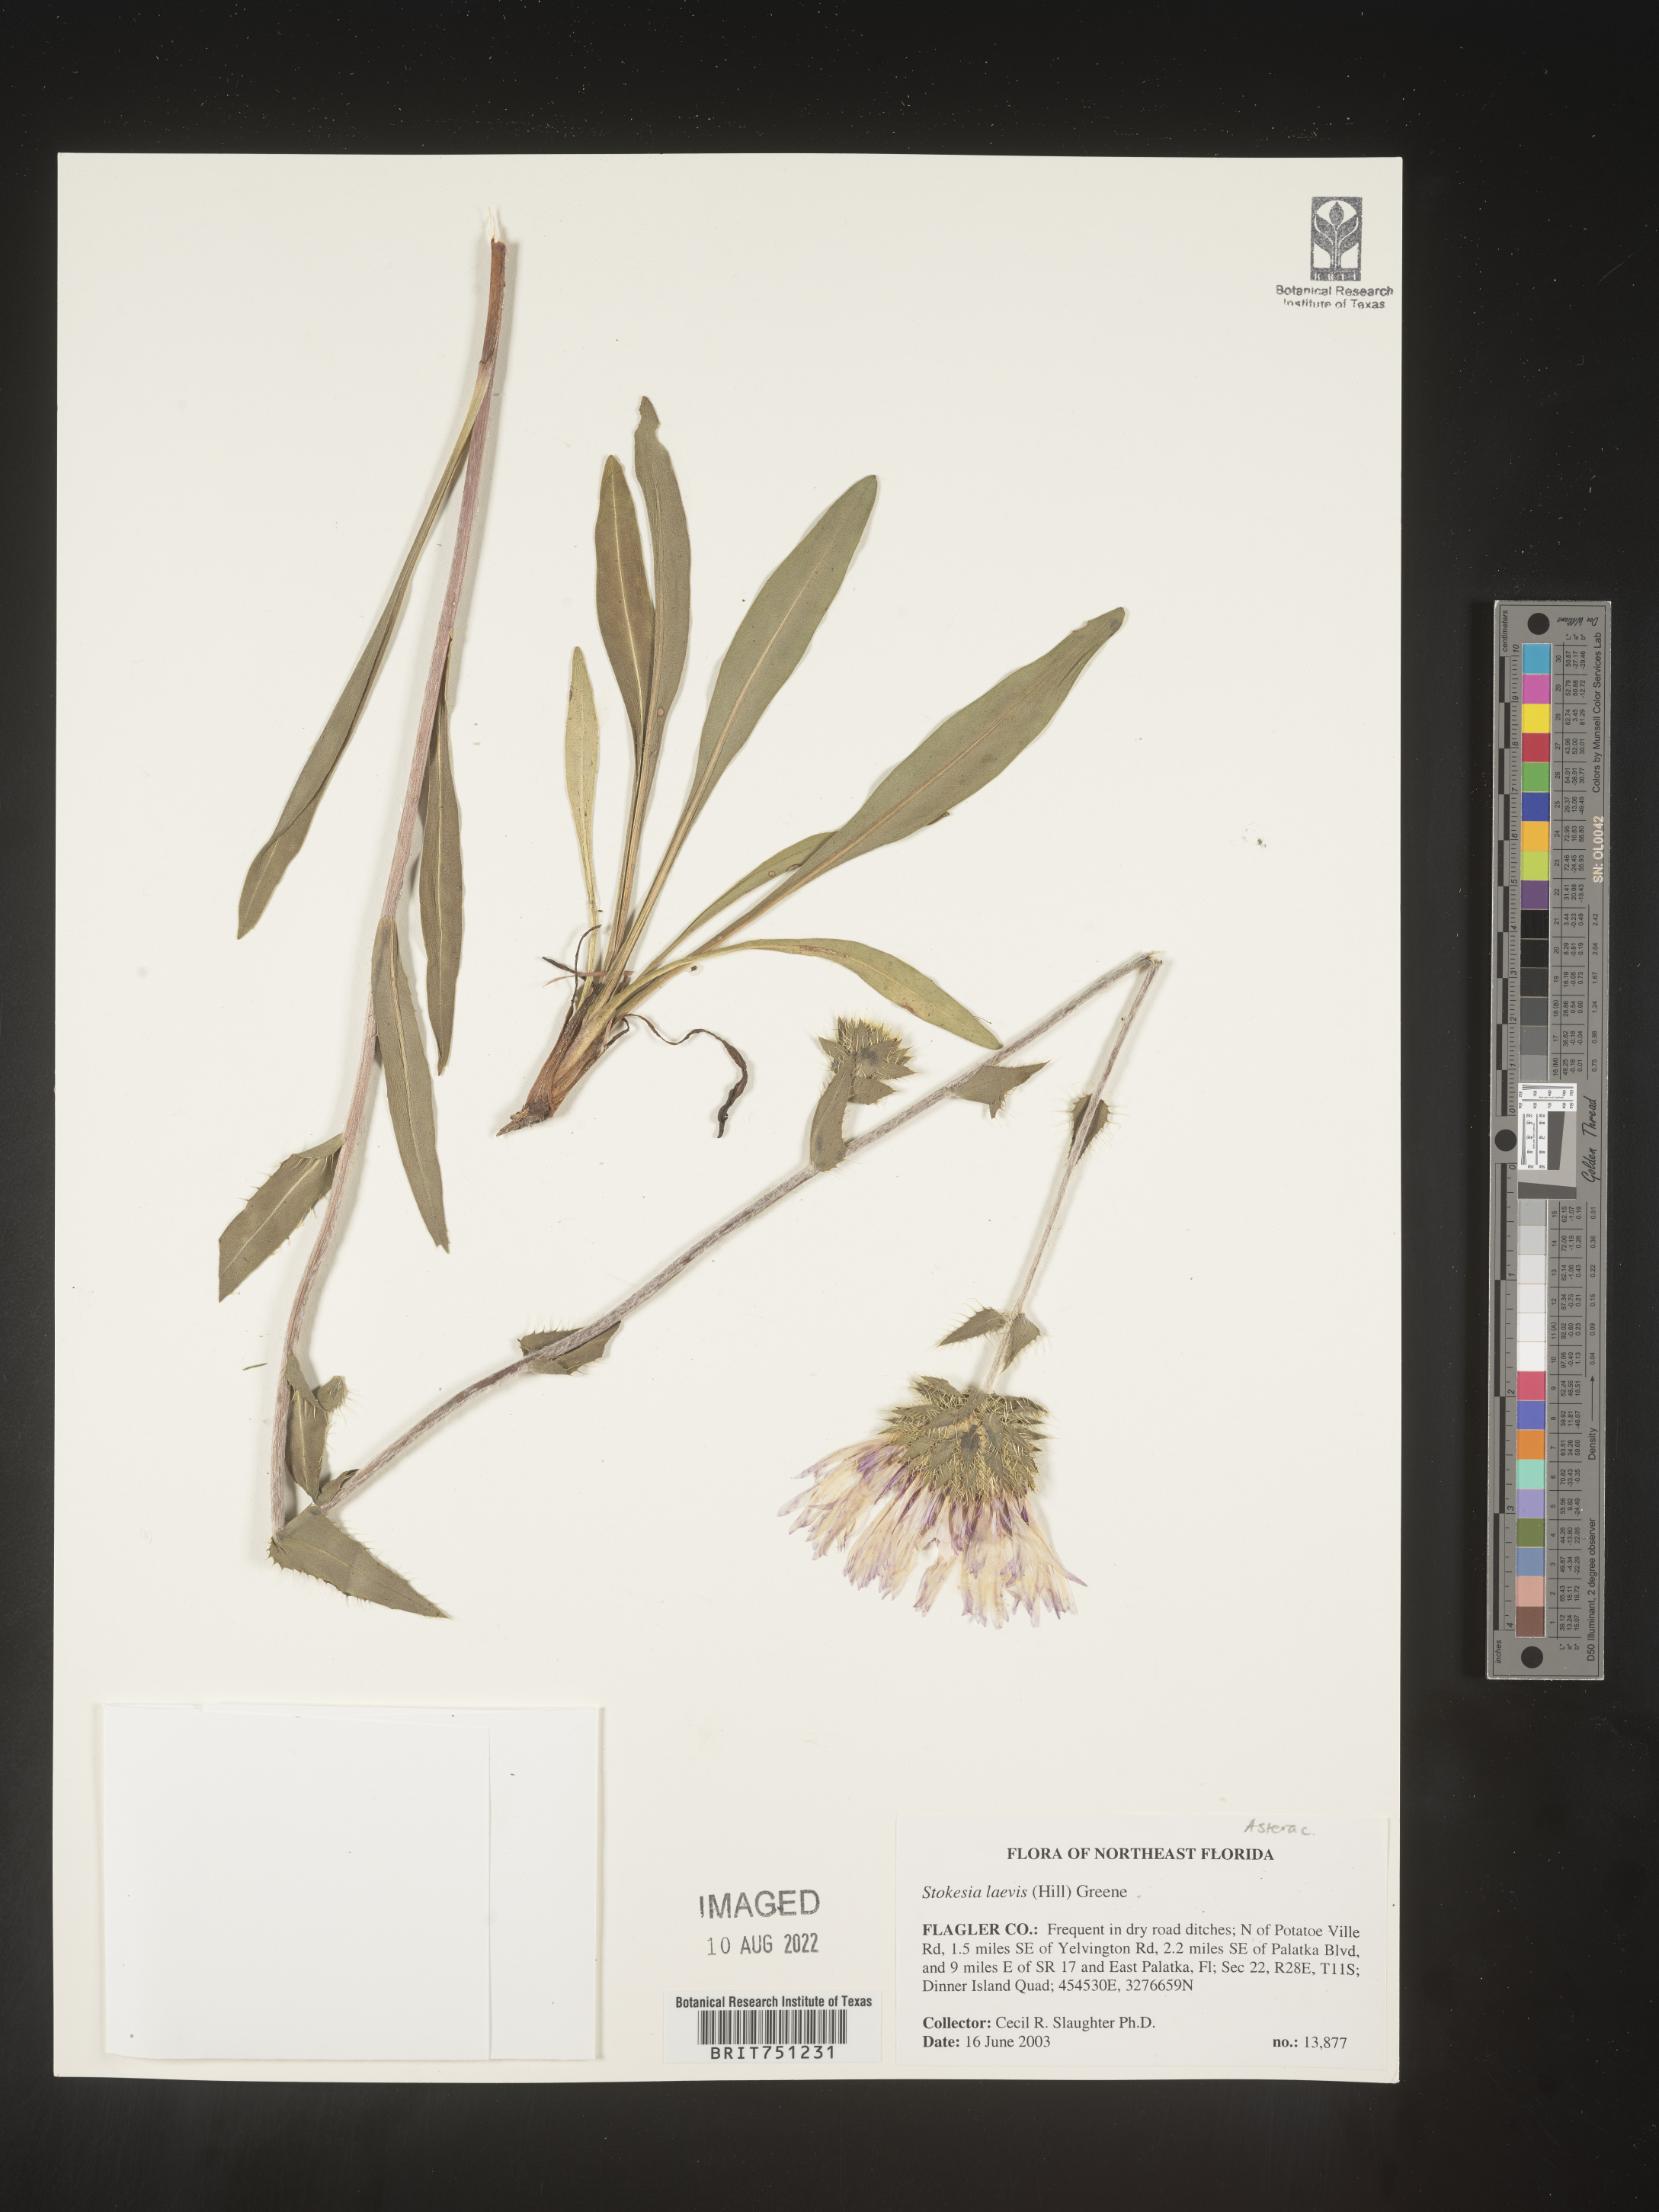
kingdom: Plantae
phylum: Tracheophyta
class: Magnoliopsida
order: Asterales
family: Asteraceae
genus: Stokesia
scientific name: Stokesia
